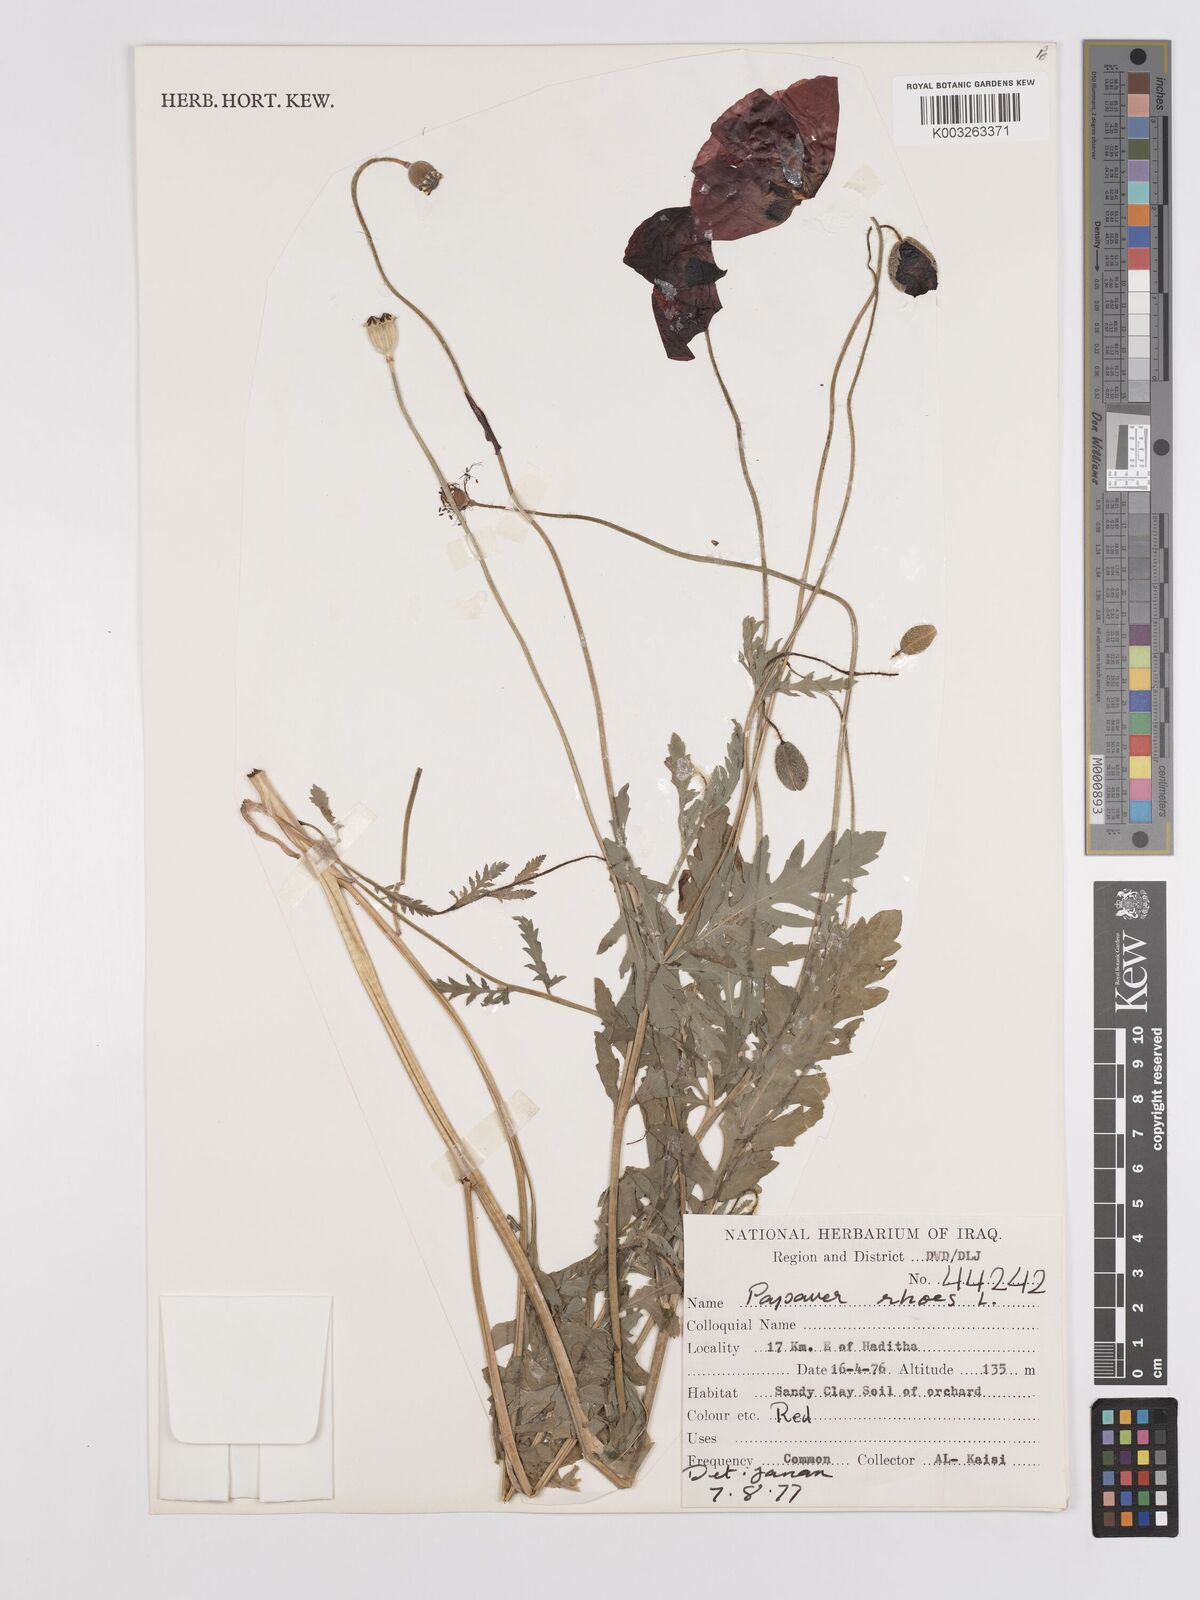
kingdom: Plantae
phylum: Tracheophyta
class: Magnoliopsida
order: Ranunculales
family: Papaveraceae
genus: Papaver
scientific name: Papaver rhoeas
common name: Corn poppy
